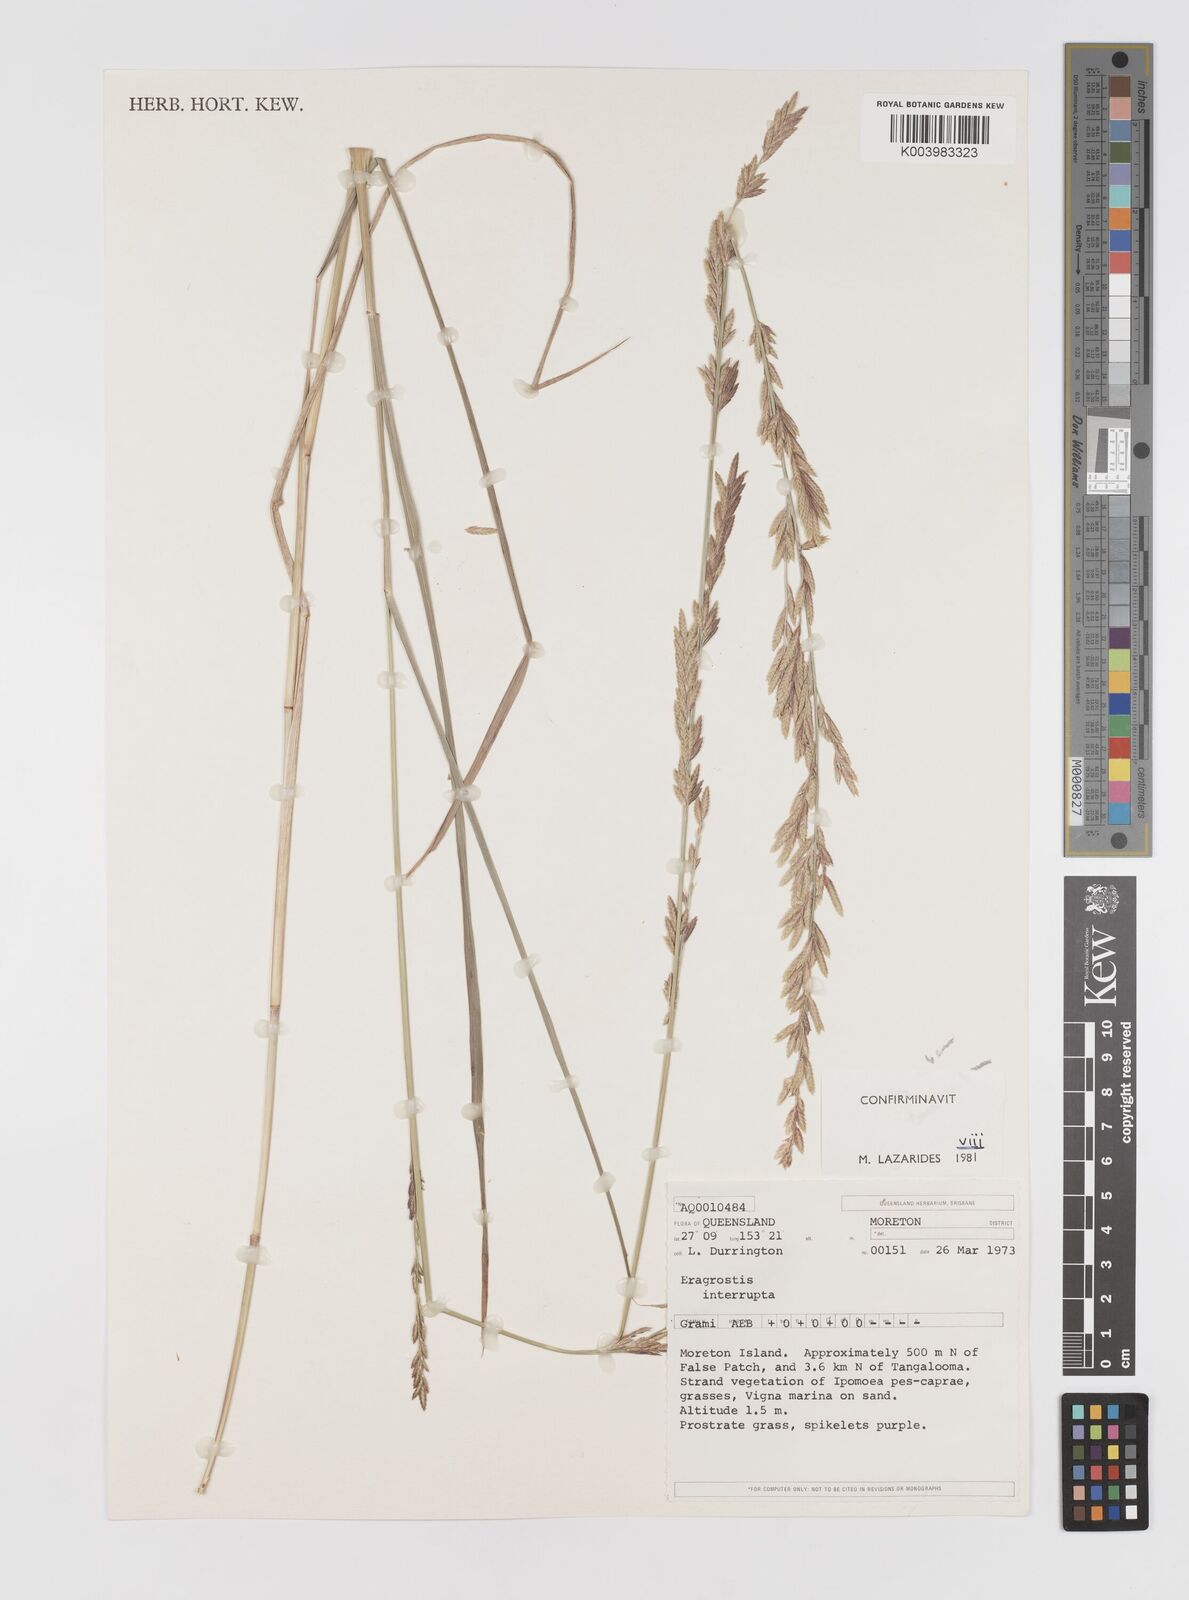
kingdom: Plantae
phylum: Tracheophyta
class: Liliopsida
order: Poales
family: Poaceae
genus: Eragrostis
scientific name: Eragrostis interrupta
